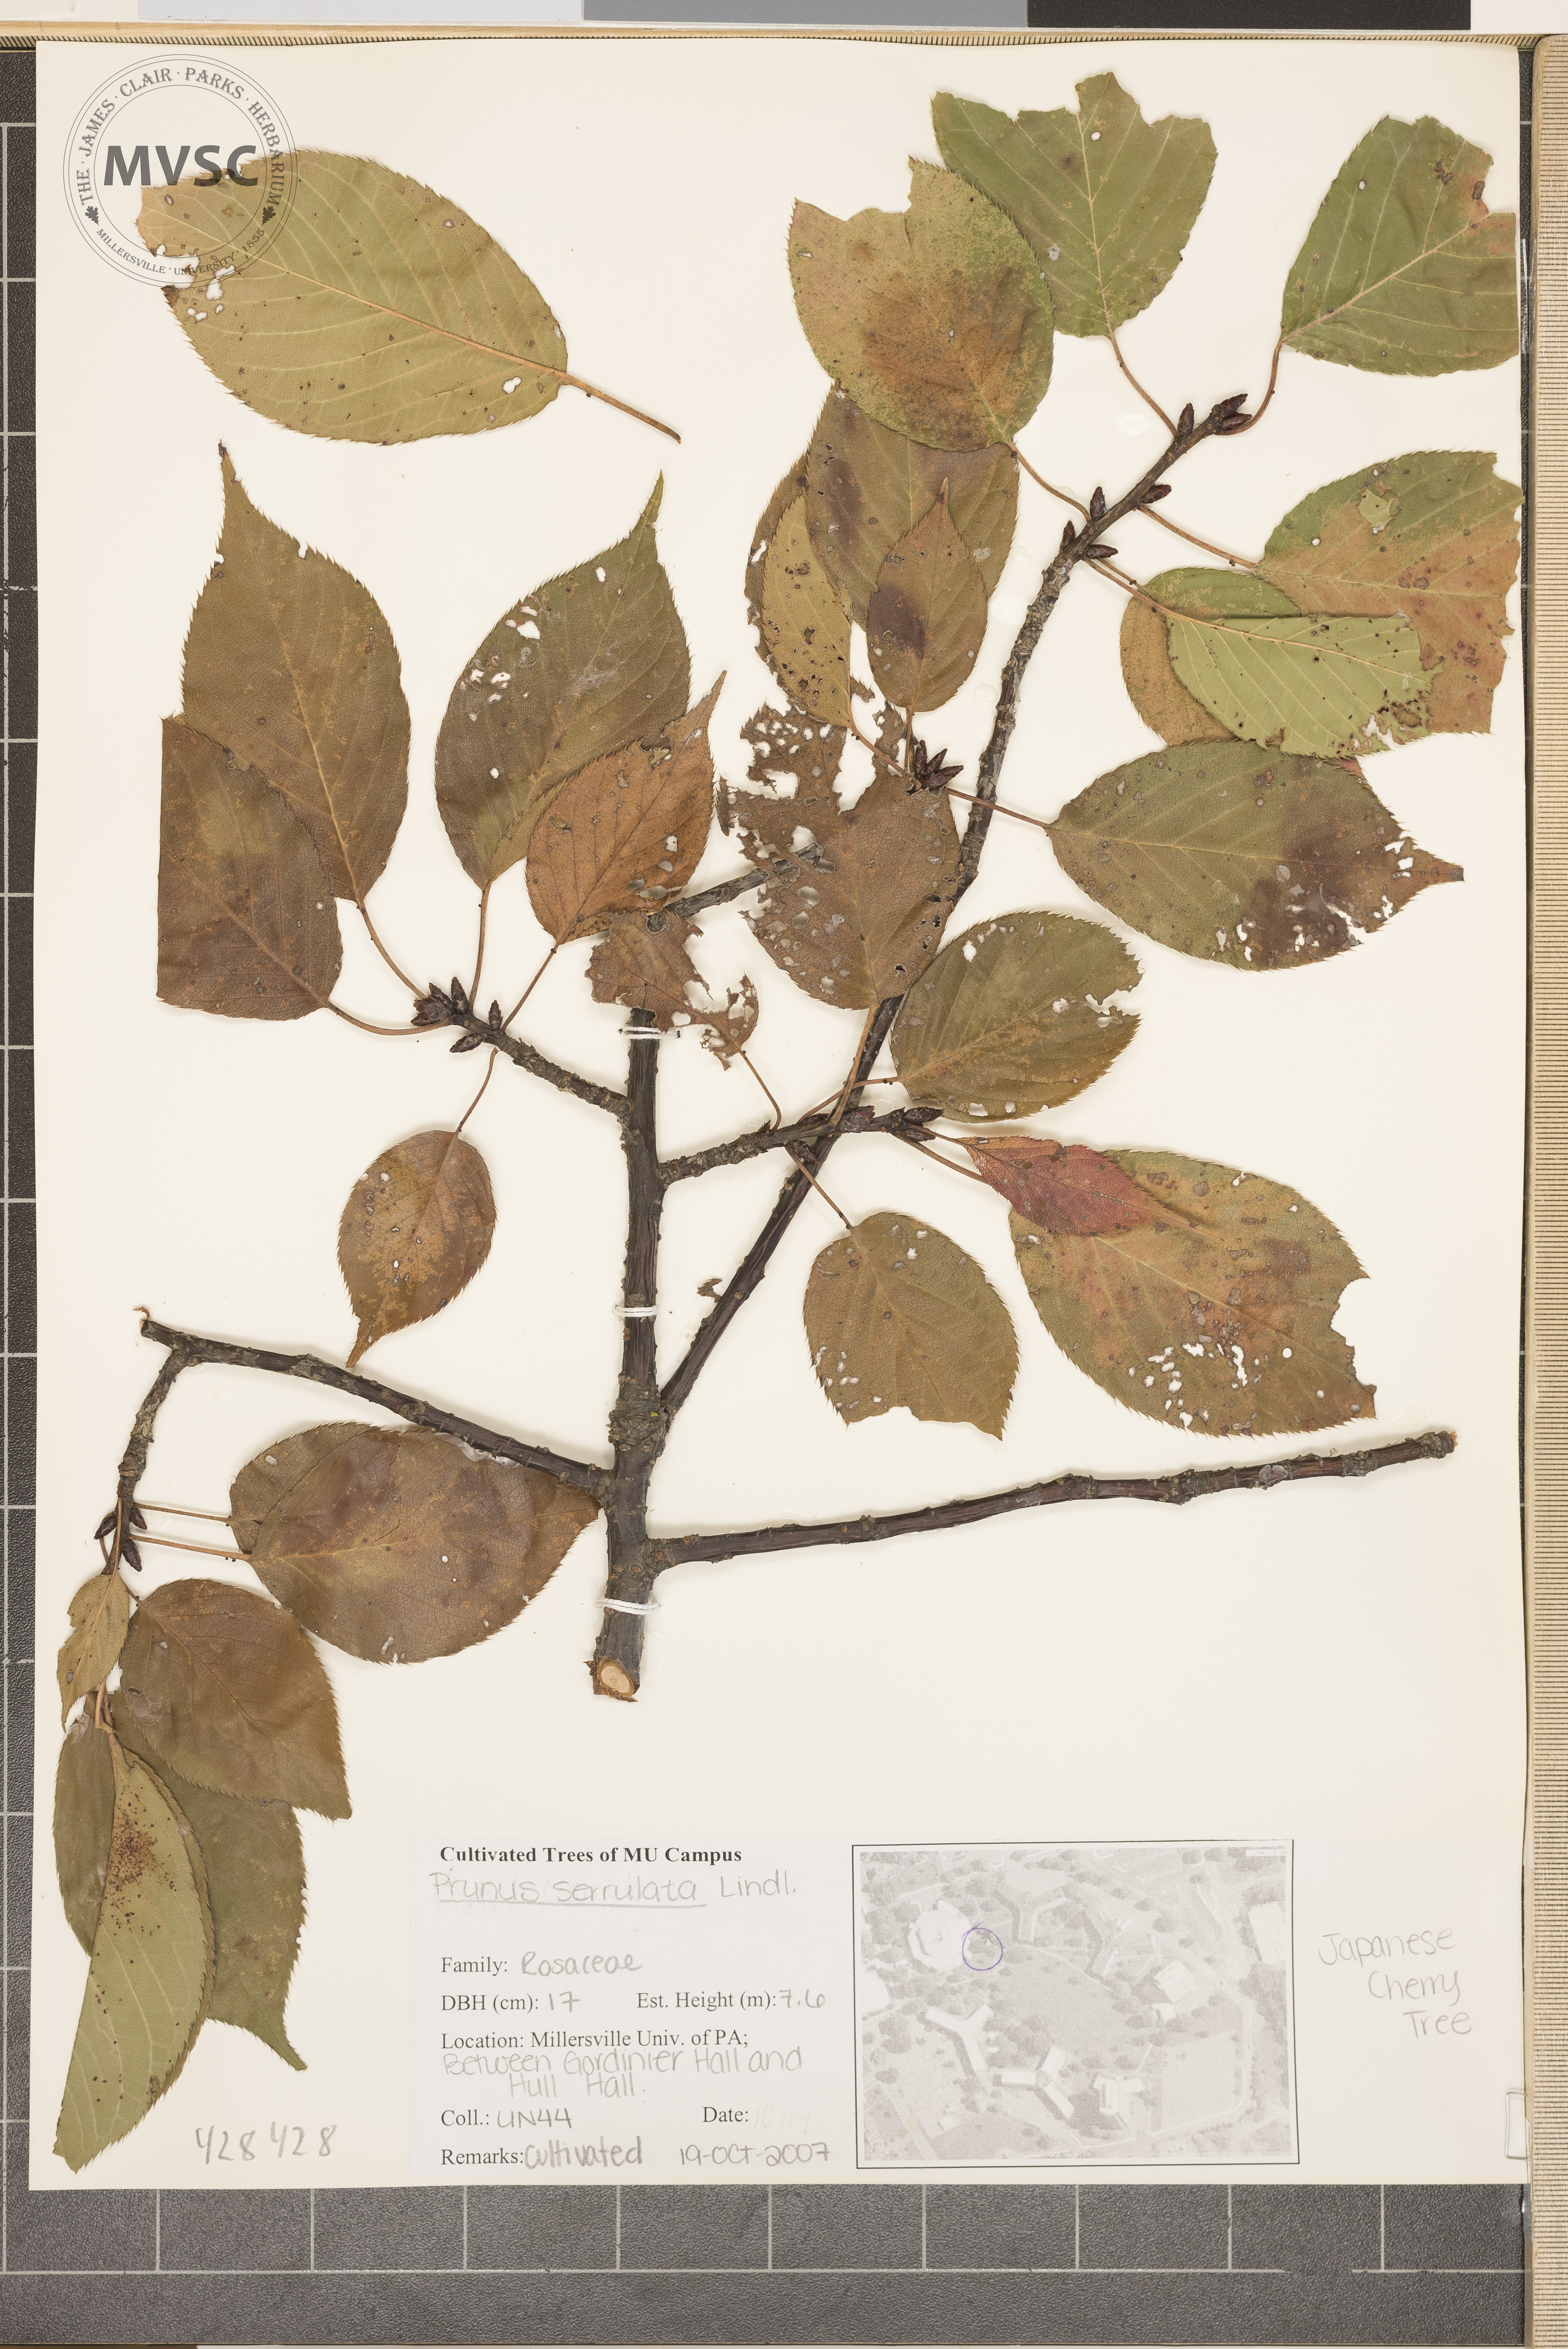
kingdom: Plantae
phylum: Tracheophyta
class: Magnoliopsida
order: Rosales
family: Rosaceae
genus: Prunus
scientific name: Prunus serrulata
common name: Oriental cherry
